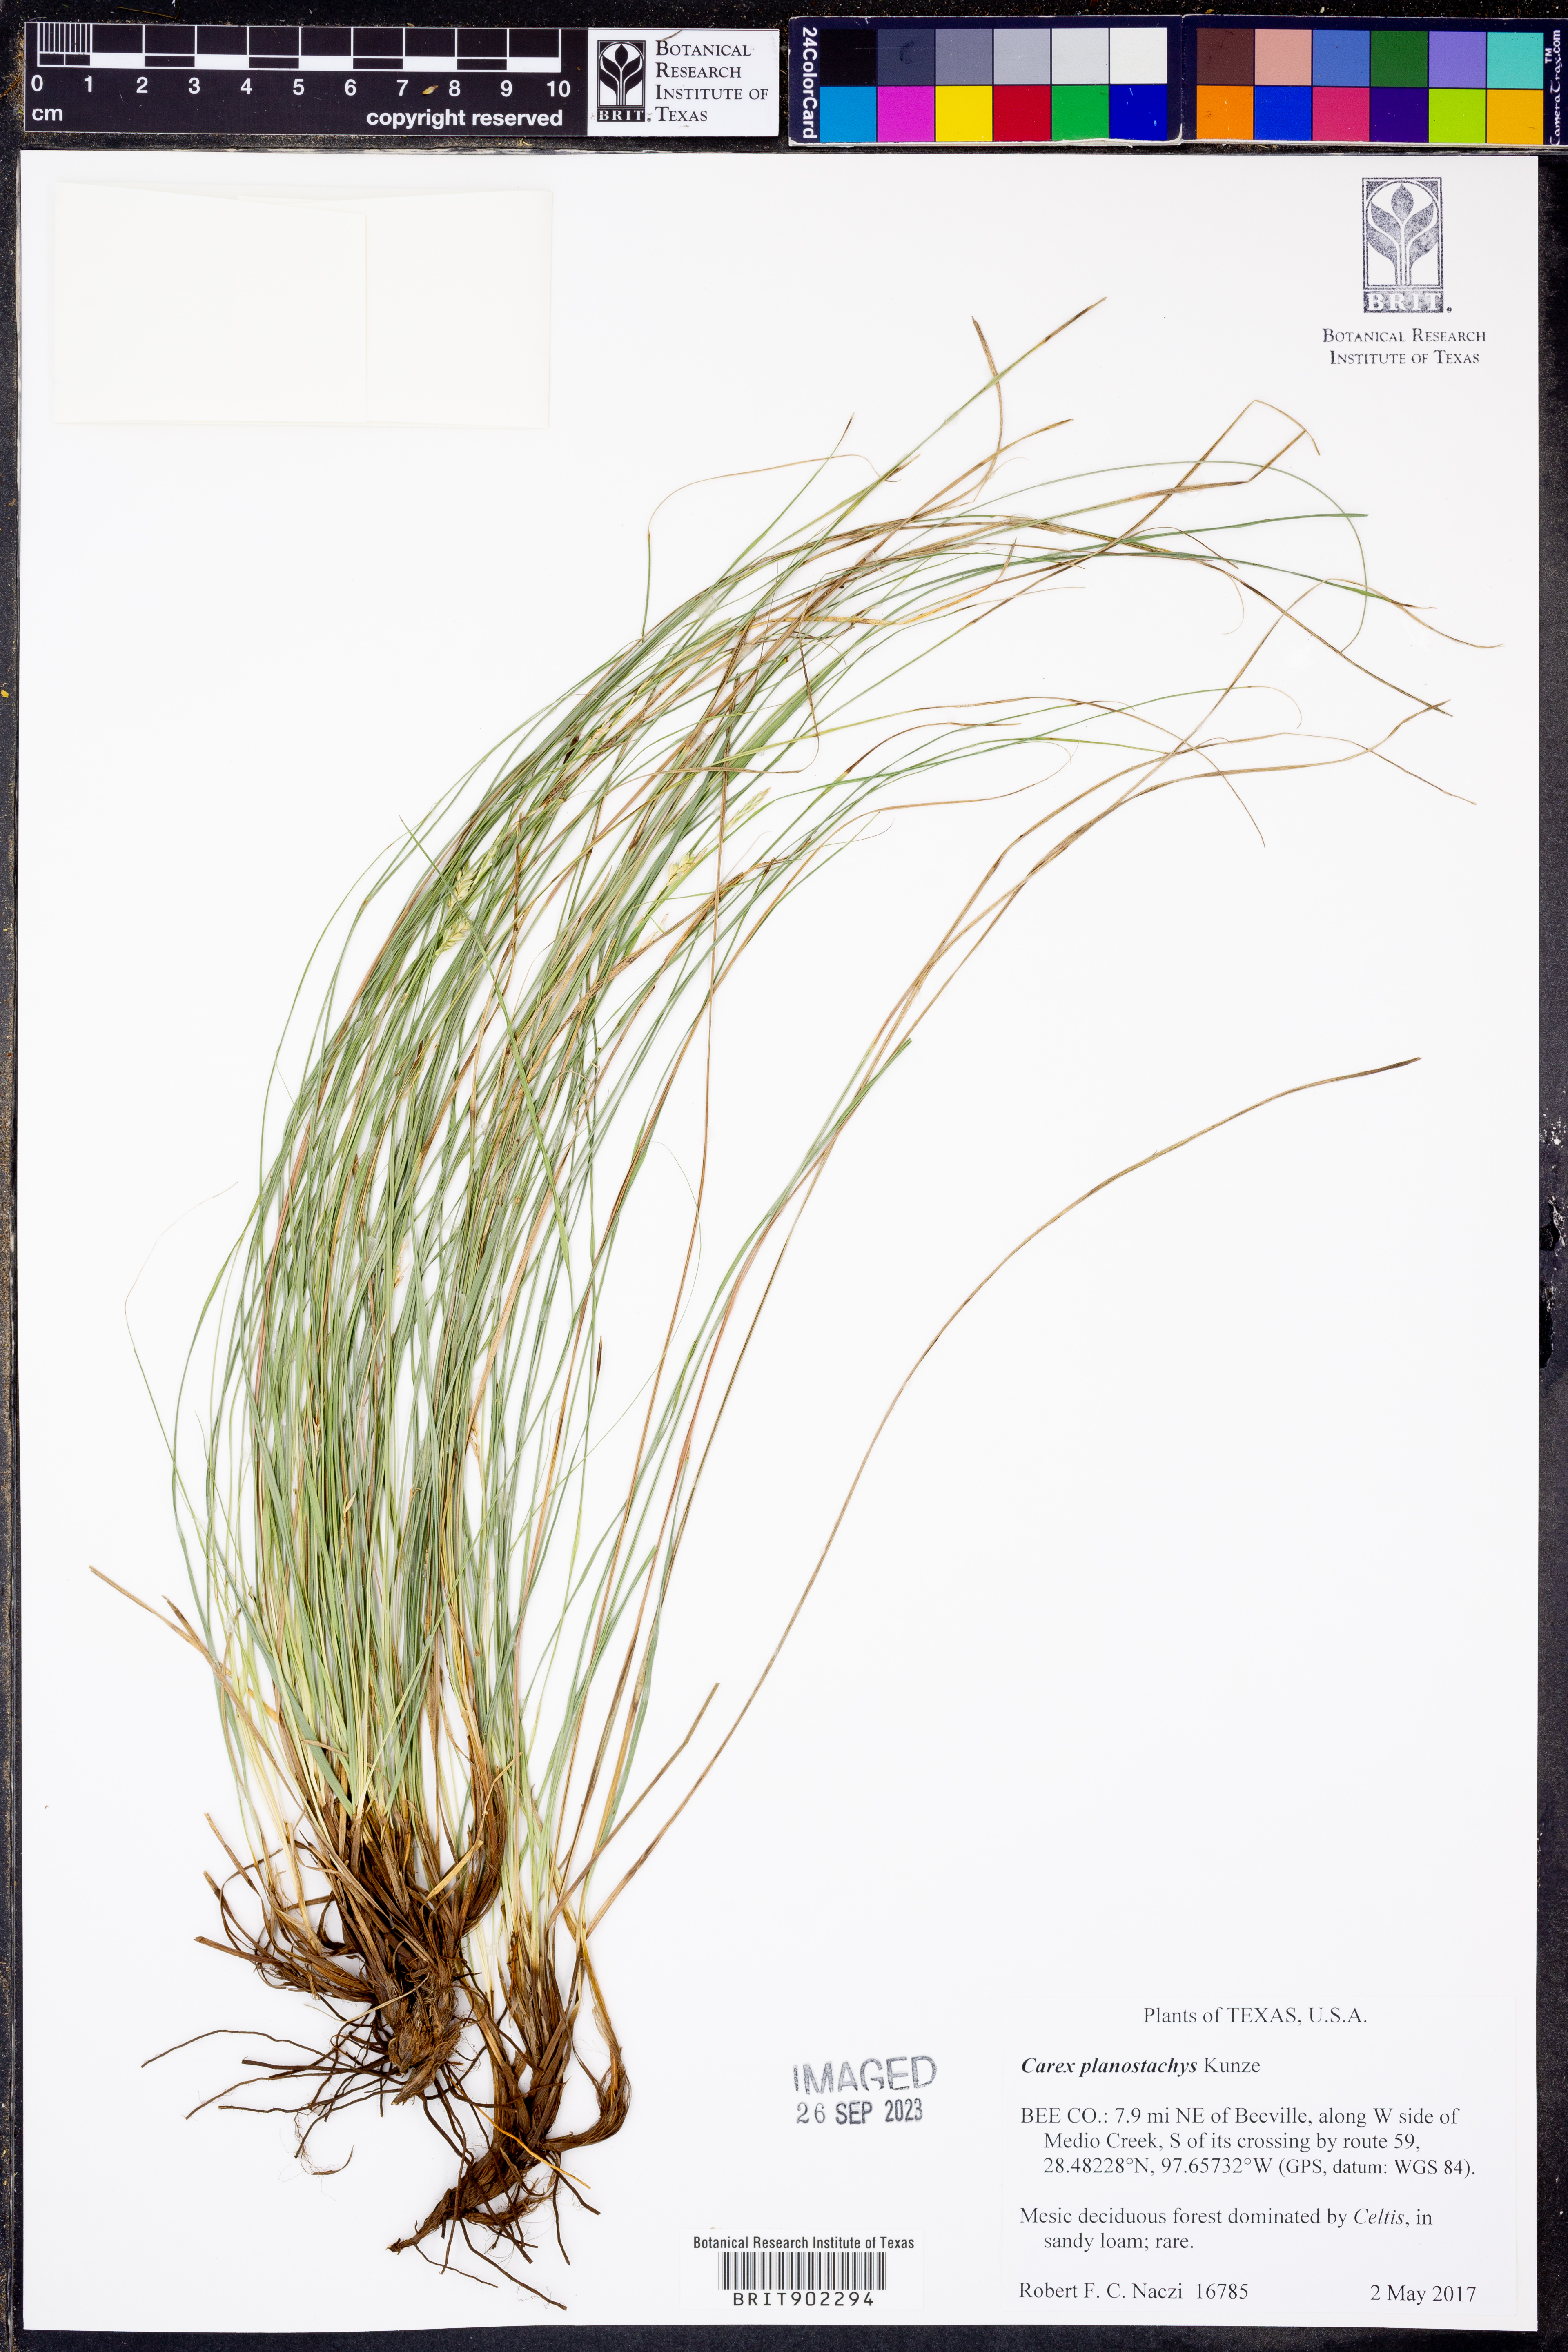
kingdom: Plantae
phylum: Tracheophyta
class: Liliopsida
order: Poales
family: Cyperaceae
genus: Carex
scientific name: Carex planostachys
